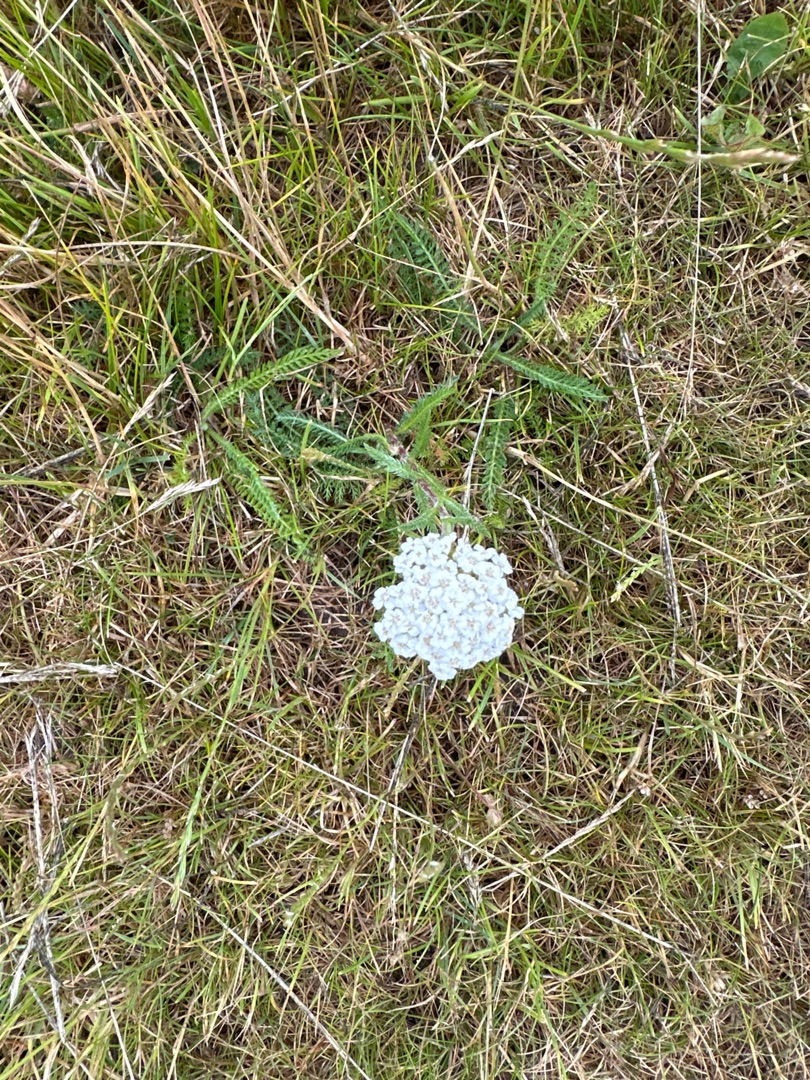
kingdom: Plantae
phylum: Tracheophyta
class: Magnoliopsida
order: Asterales
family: Asteraceae
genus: Achillea
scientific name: Achillea millefolium
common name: Almindelig røllike
